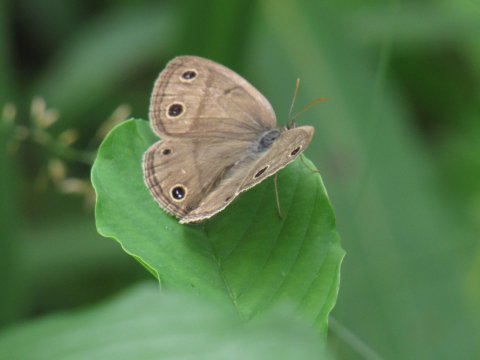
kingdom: Animalia
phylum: Arthropoda
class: Insecta
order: Lepidoptera
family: Nymphalidae
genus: Euptychia
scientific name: Euptychia cymela
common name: Little Wood Satyr
